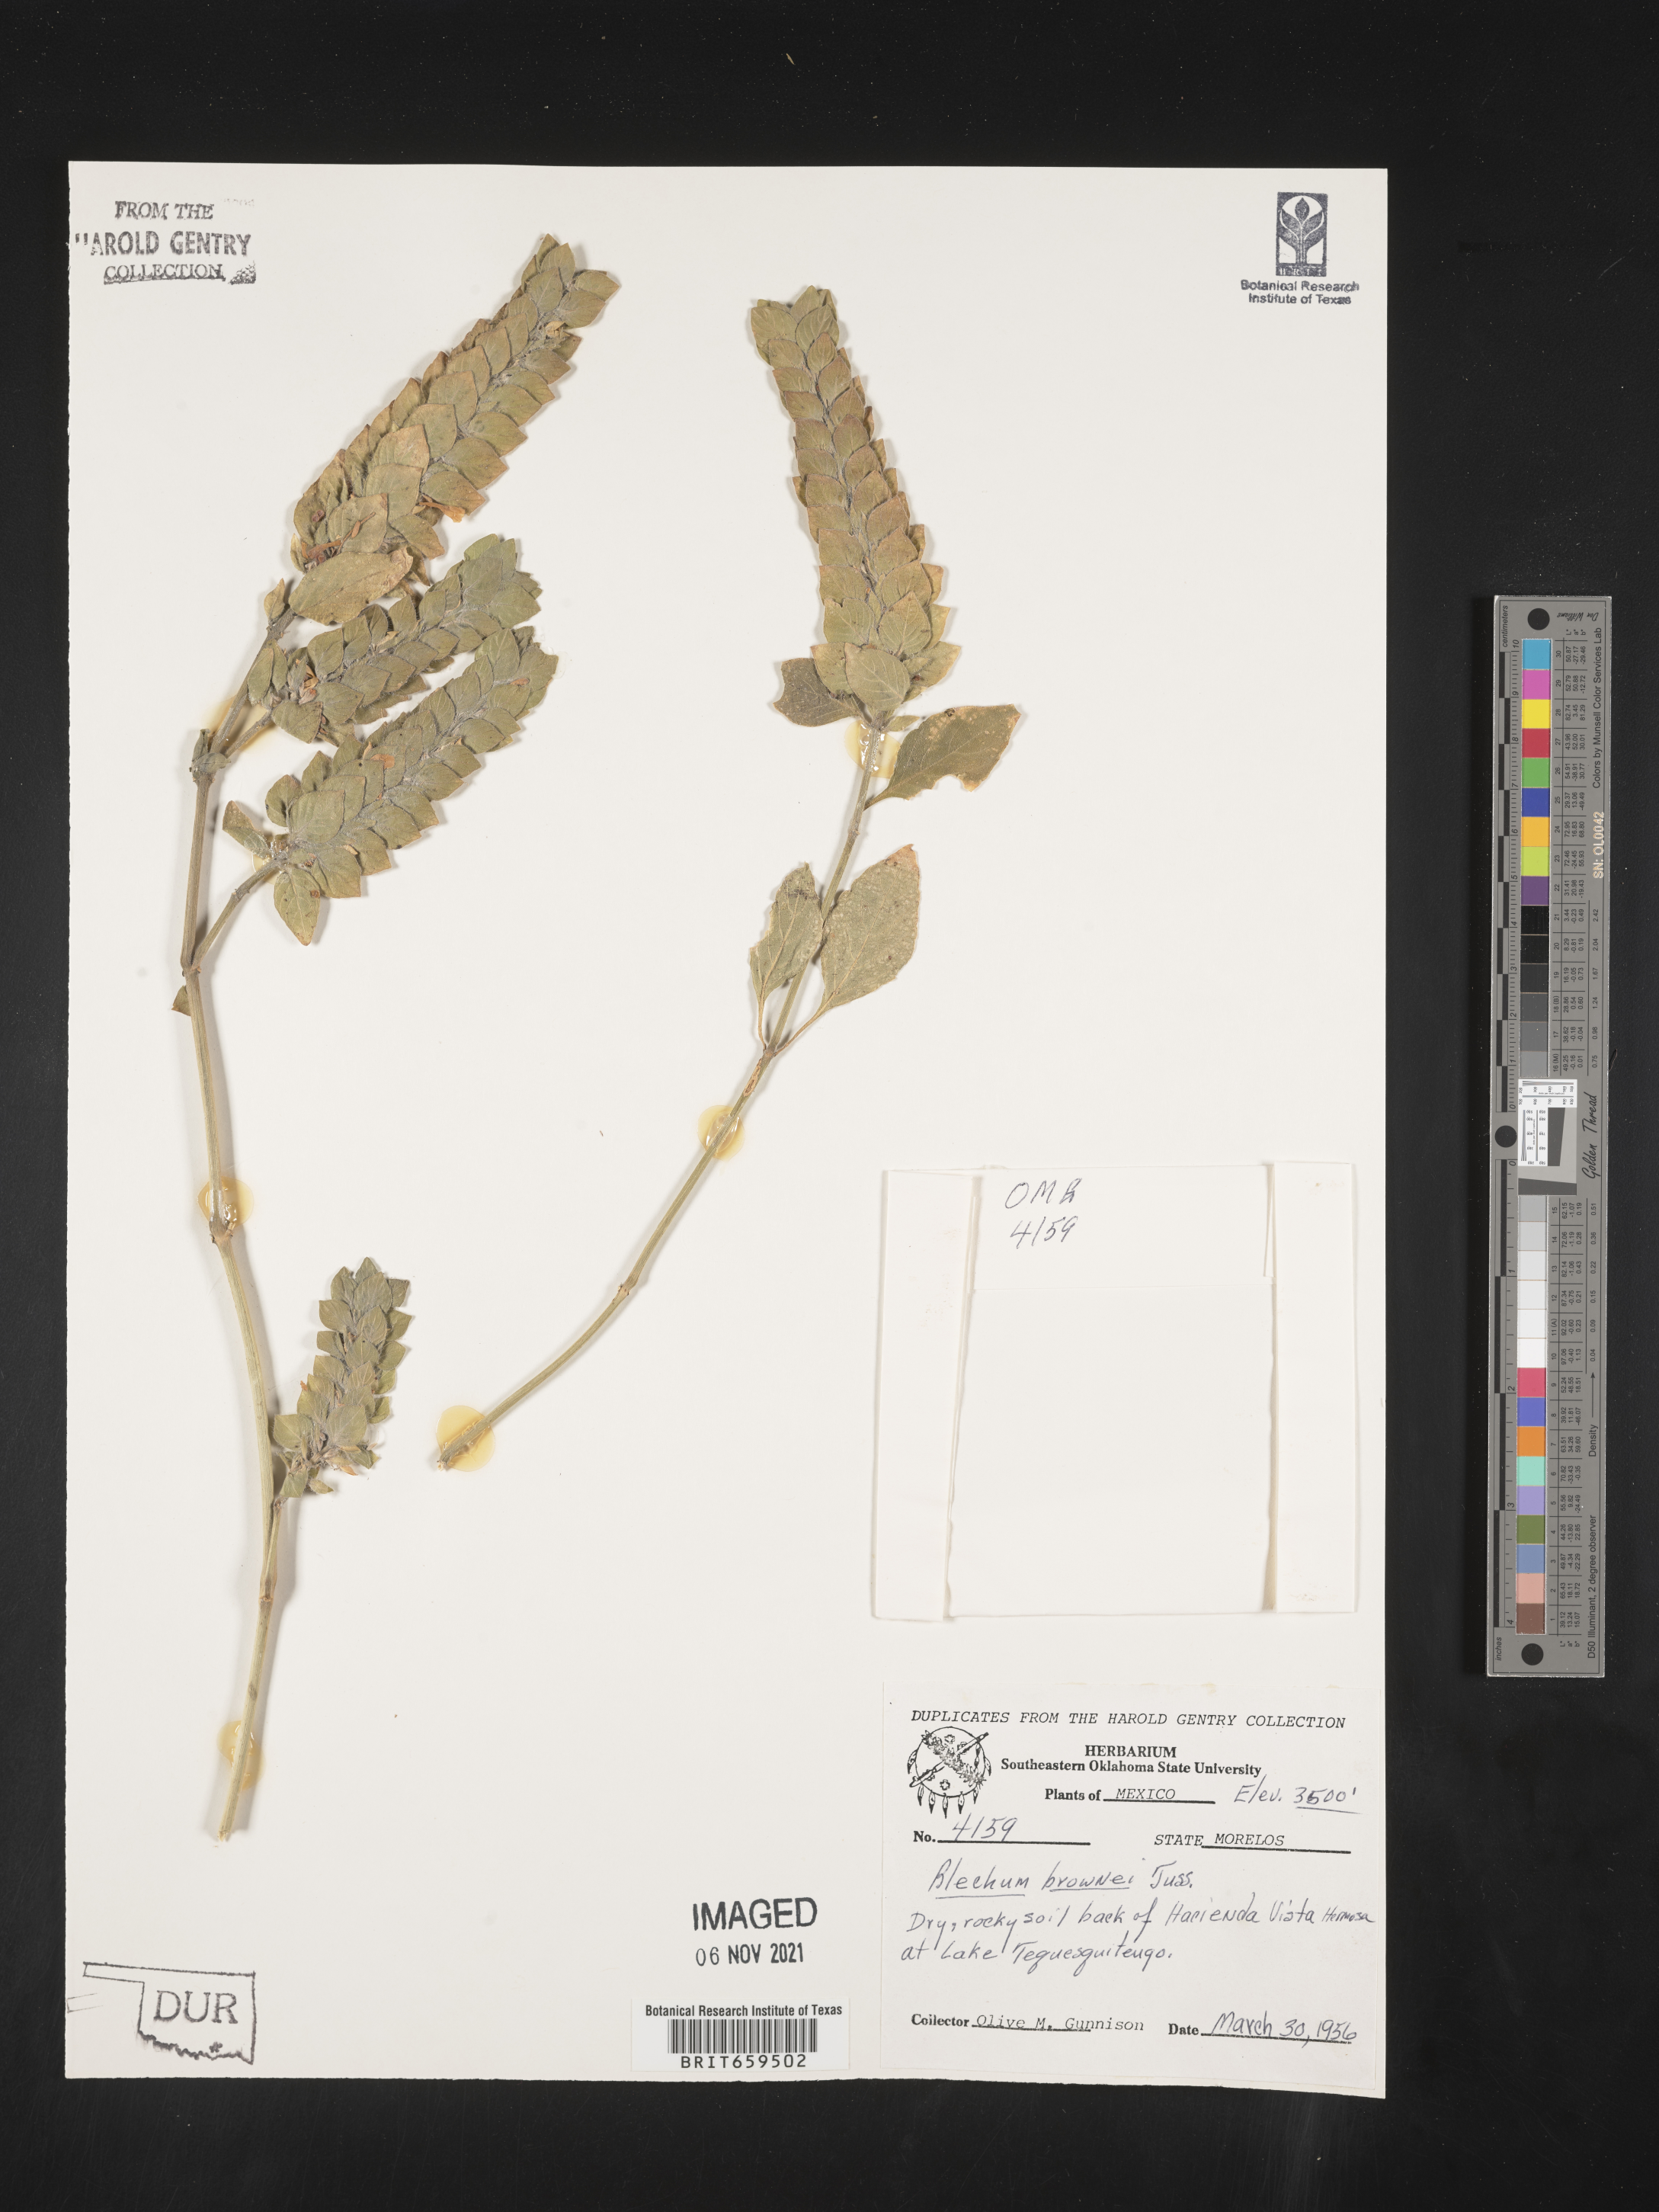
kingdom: Plantae
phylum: Tracheophyta
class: Polypodiopsida
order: Polypodiales
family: Blechnaceae
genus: Blechum
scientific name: Blechum
